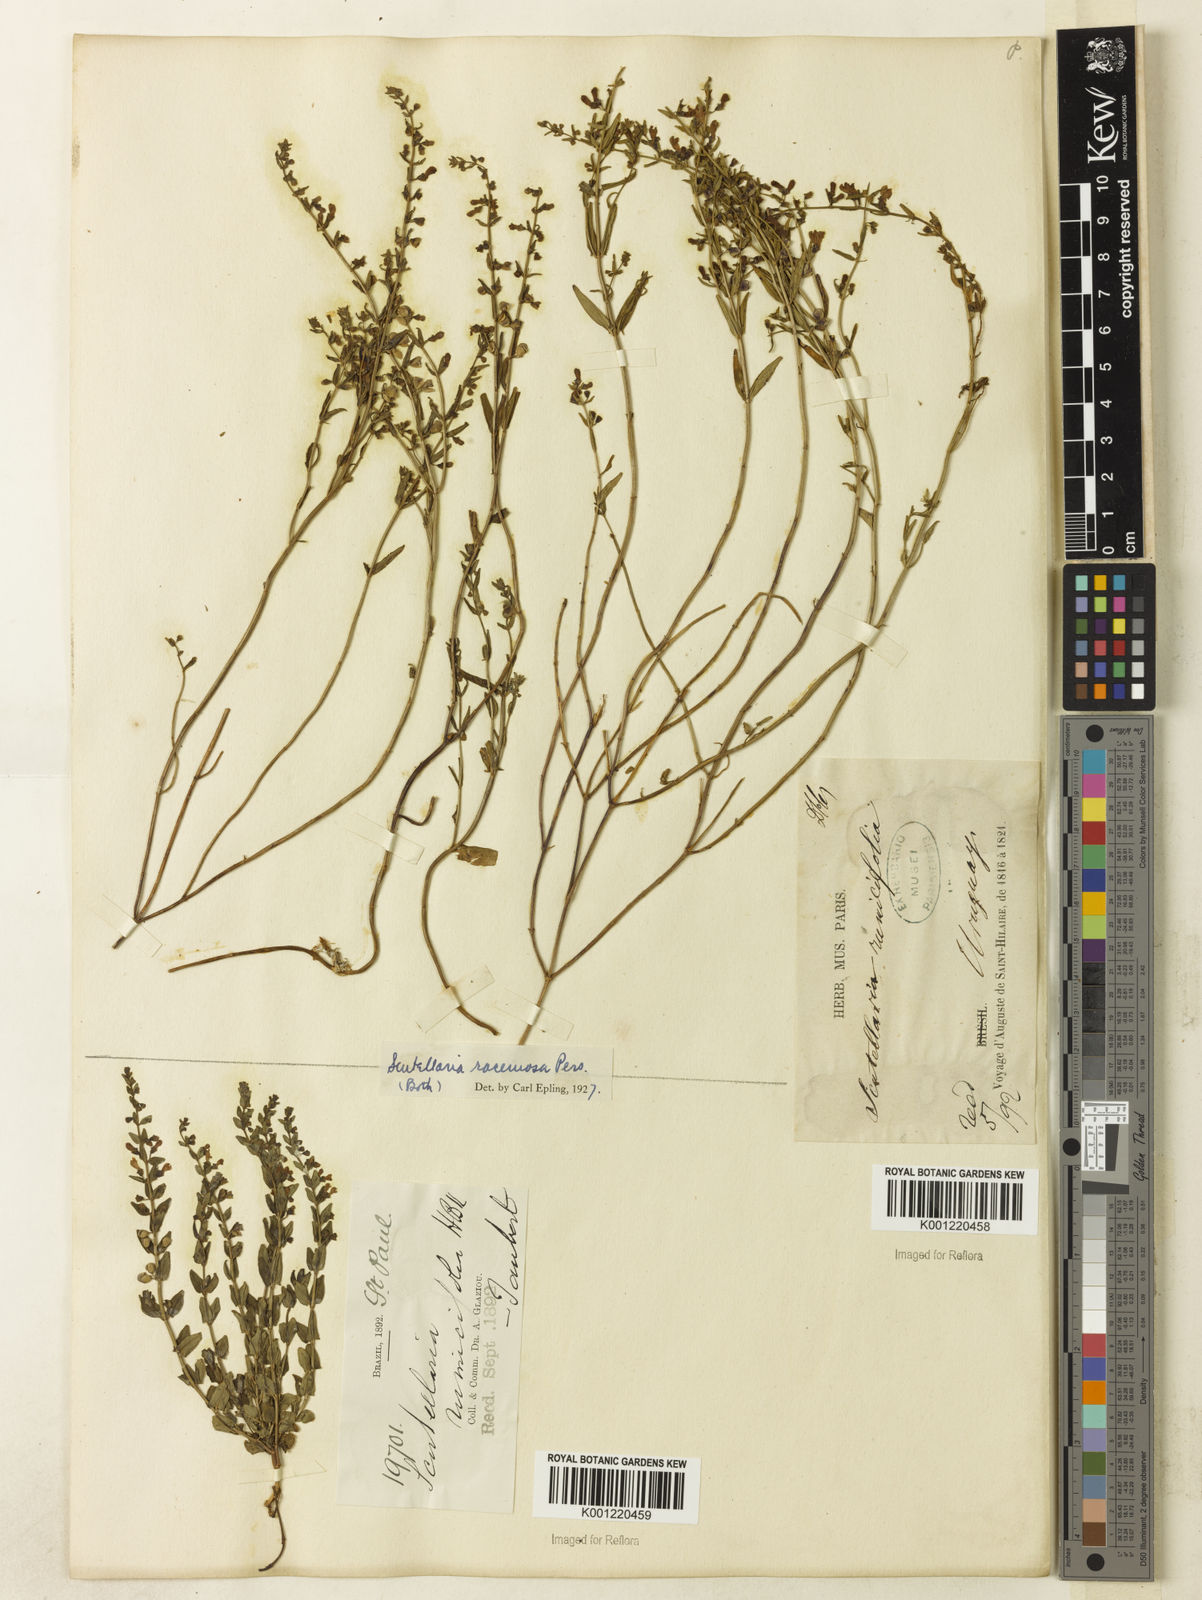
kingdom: Plantae
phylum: Tracheophyta
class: Magnoliopsida
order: Lamiales
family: Lamiaceae
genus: Scutellaria
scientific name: Scutellaria racemosa
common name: South american skullcap
